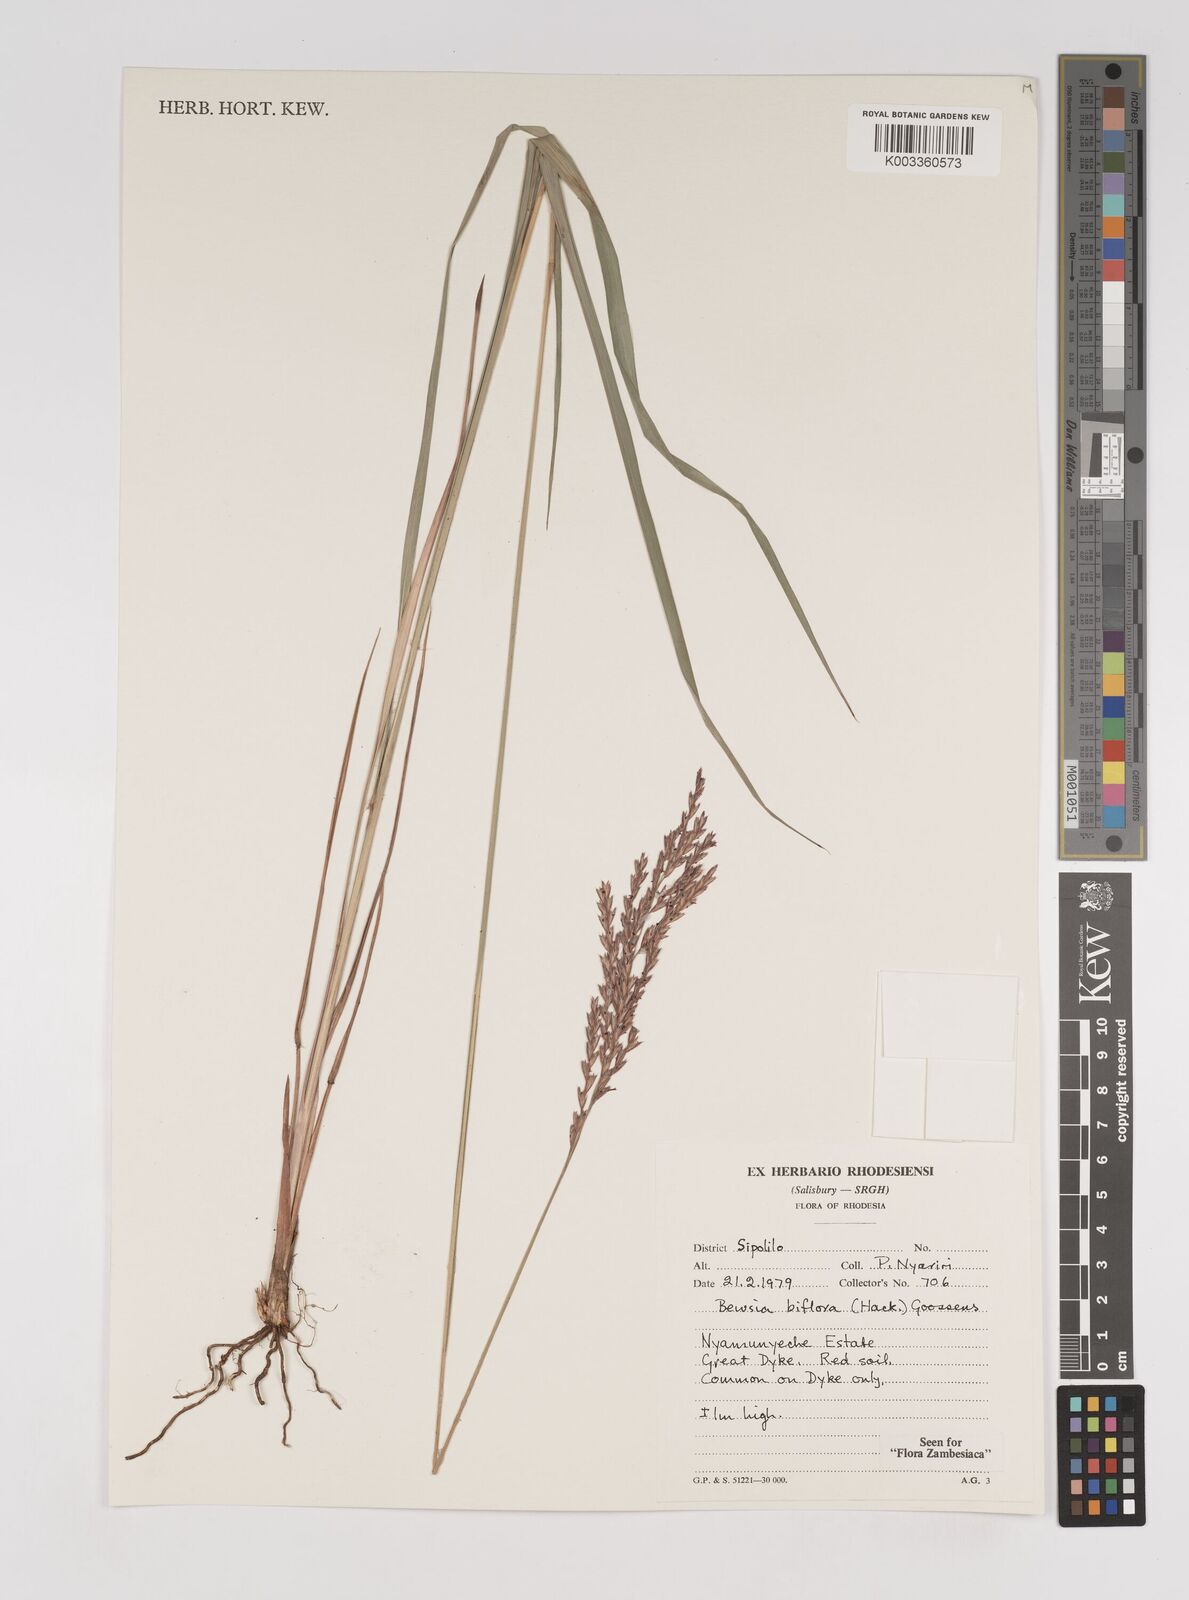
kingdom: Plantae
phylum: Tracheophyta
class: Liliopsida
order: Poales
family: Poaceae
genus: Bewsia
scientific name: Bewsia biflora
